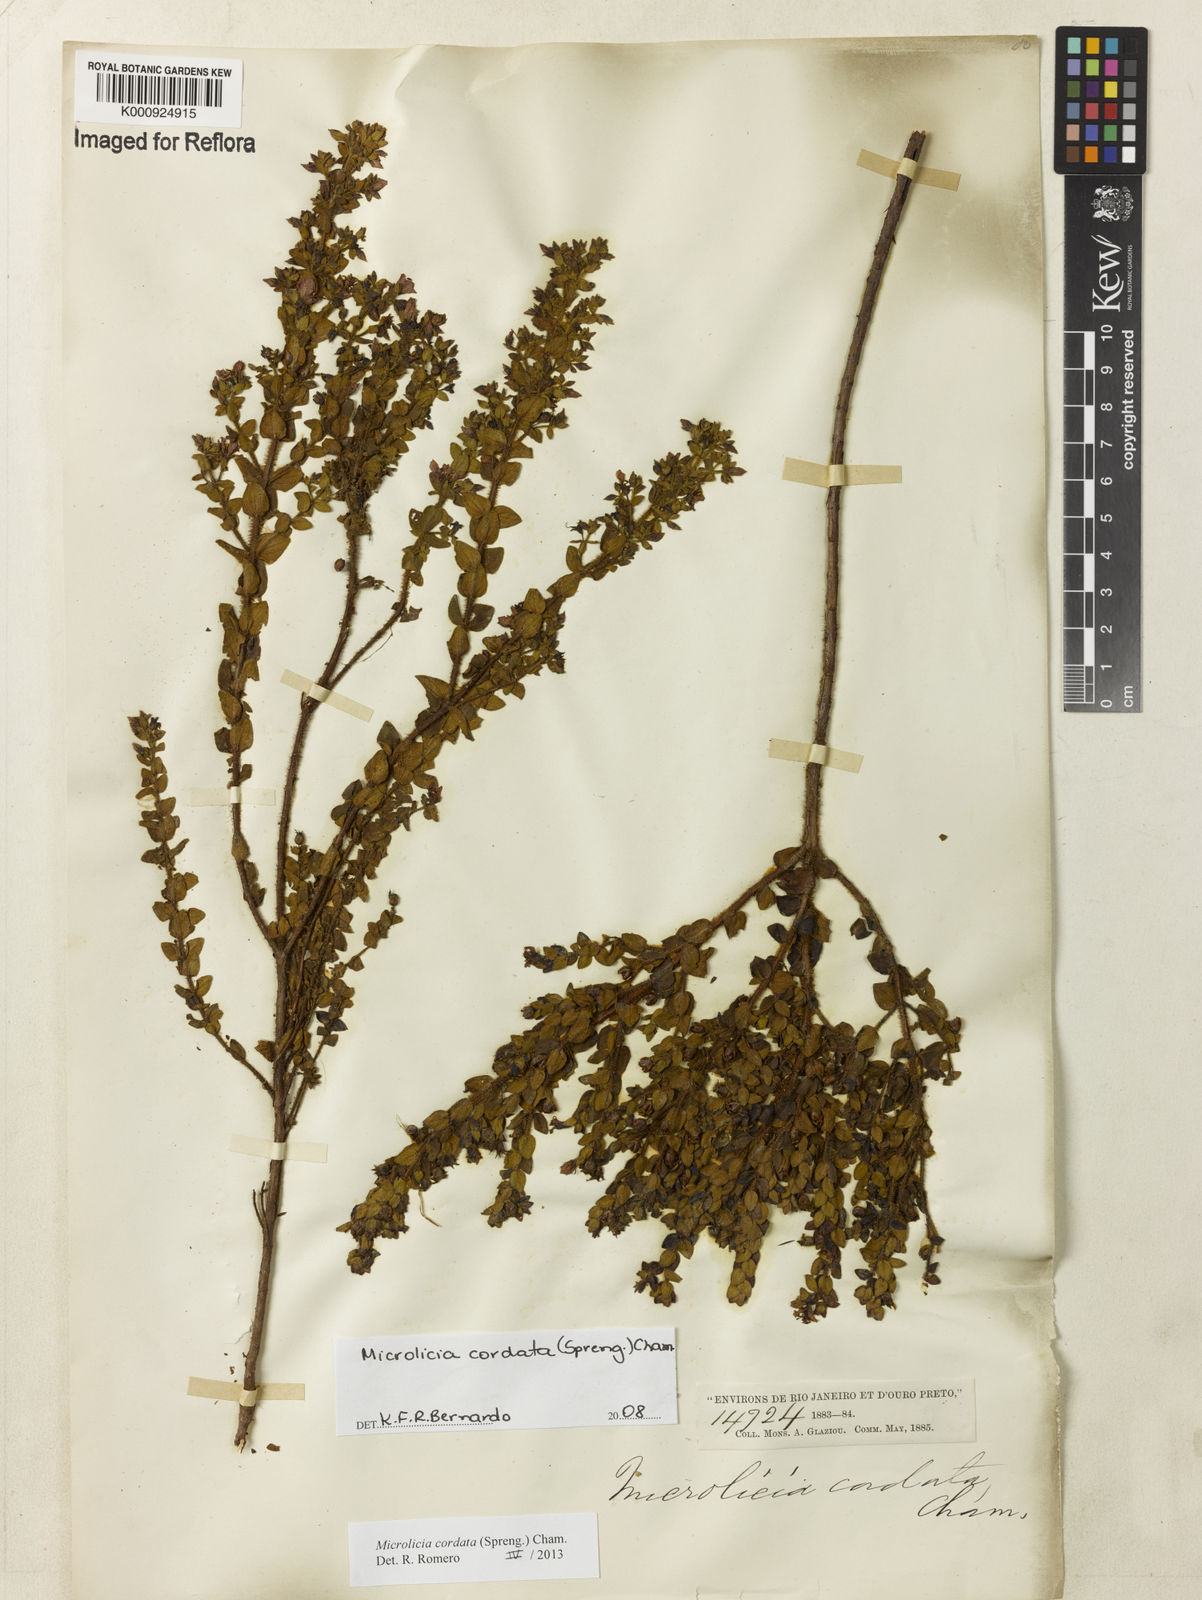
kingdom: Plantae
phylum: Tracheophyta
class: Magnoliopsida
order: Myrtales
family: Melastomataceae
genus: Microlicia
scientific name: Microlicia cordata
